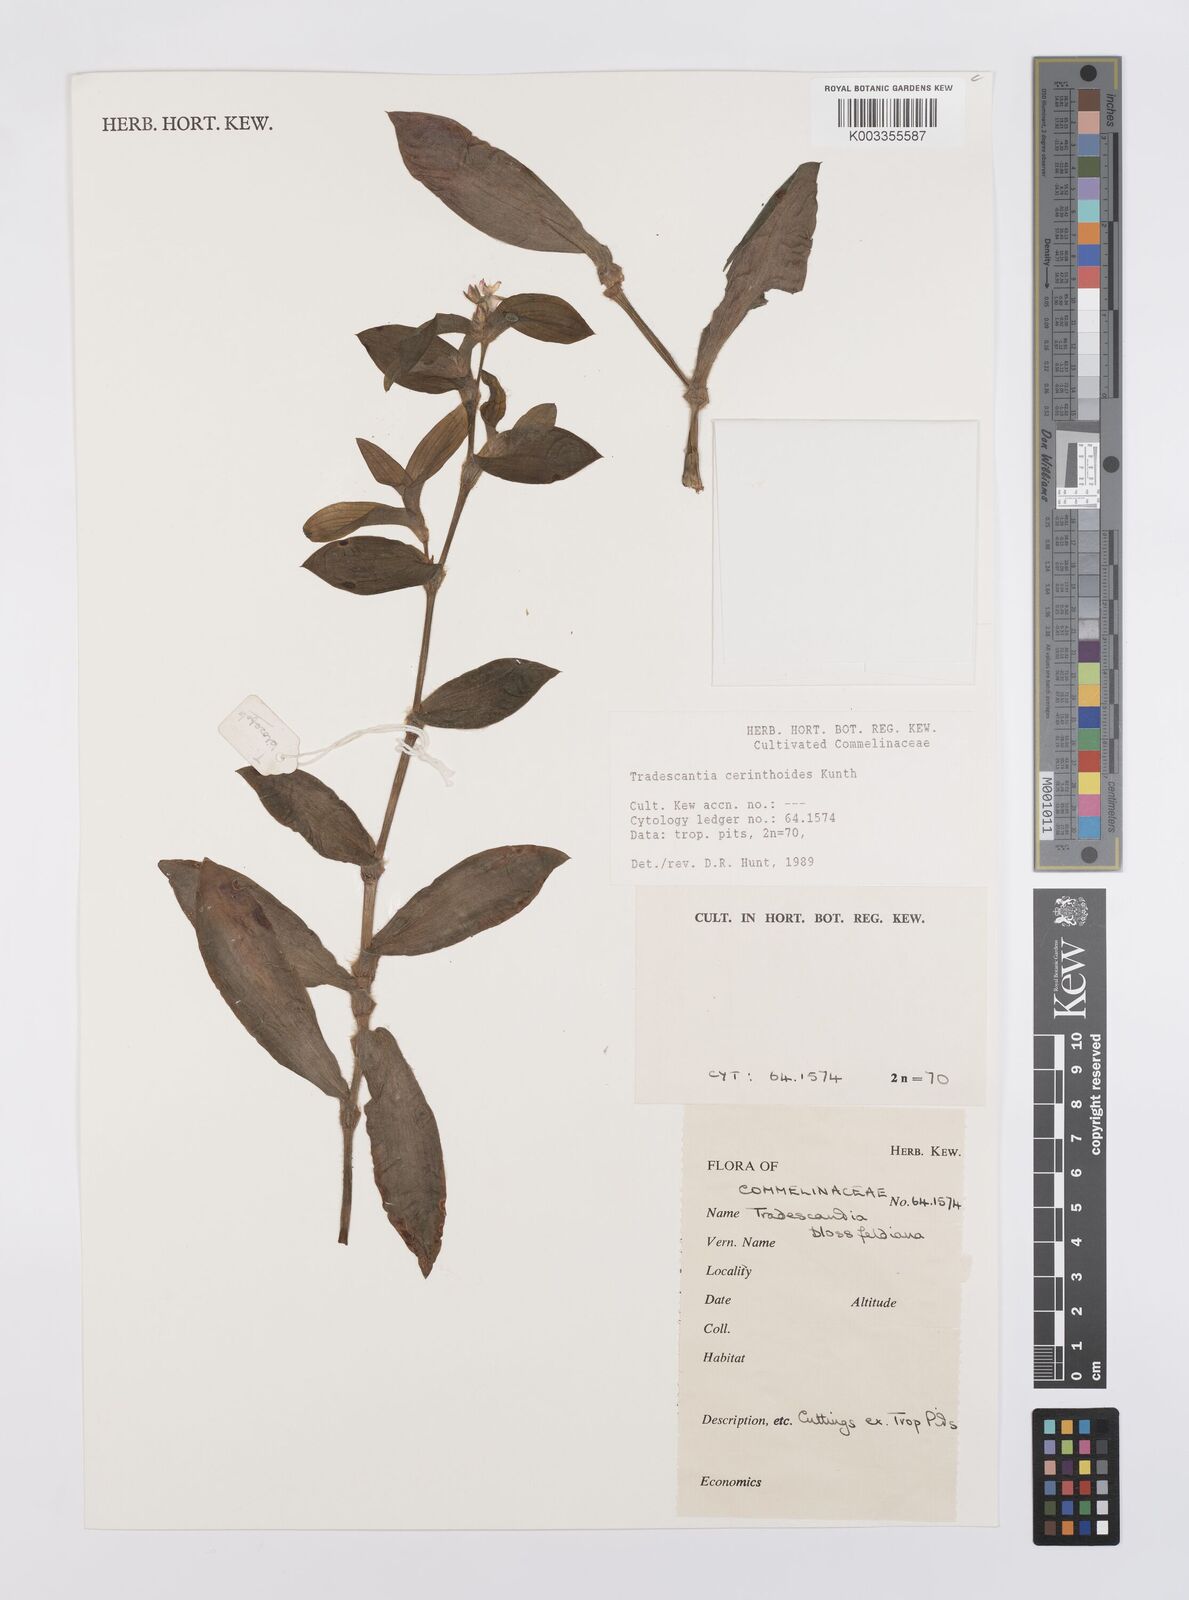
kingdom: Plantae
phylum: Tracheophyta
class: Liliopsida
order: Commelinales
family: Commelinaceae
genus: Tradescantia
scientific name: Tradescantia cerinthoides
